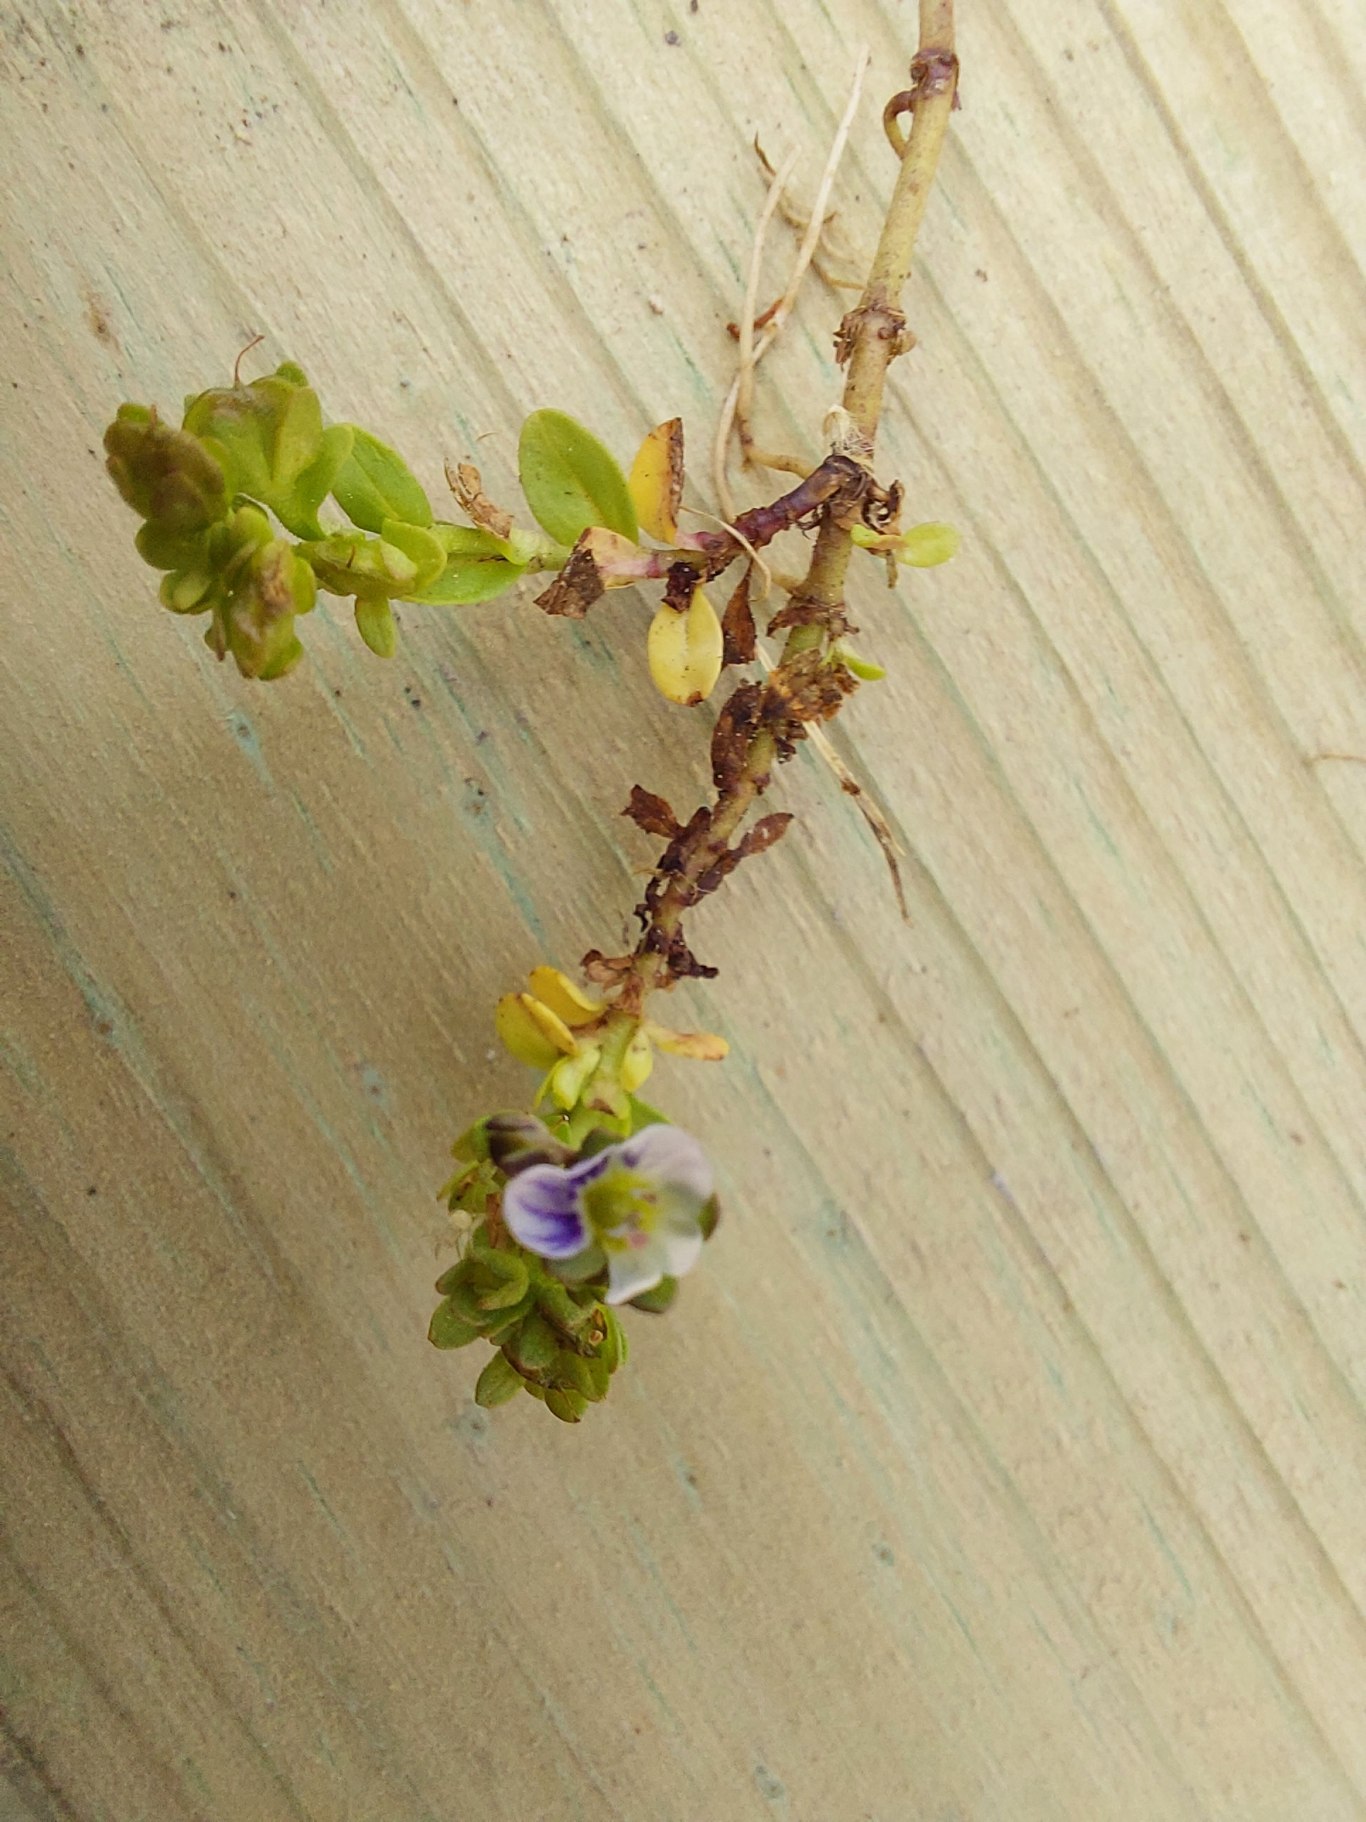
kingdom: Plantae
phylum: Tracheophyta
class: Magnoliopsida
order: Lamiales
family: Plantaginaceae
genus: Veronica
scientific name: Veronica serpyllifolia
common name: Glat ærenpris
